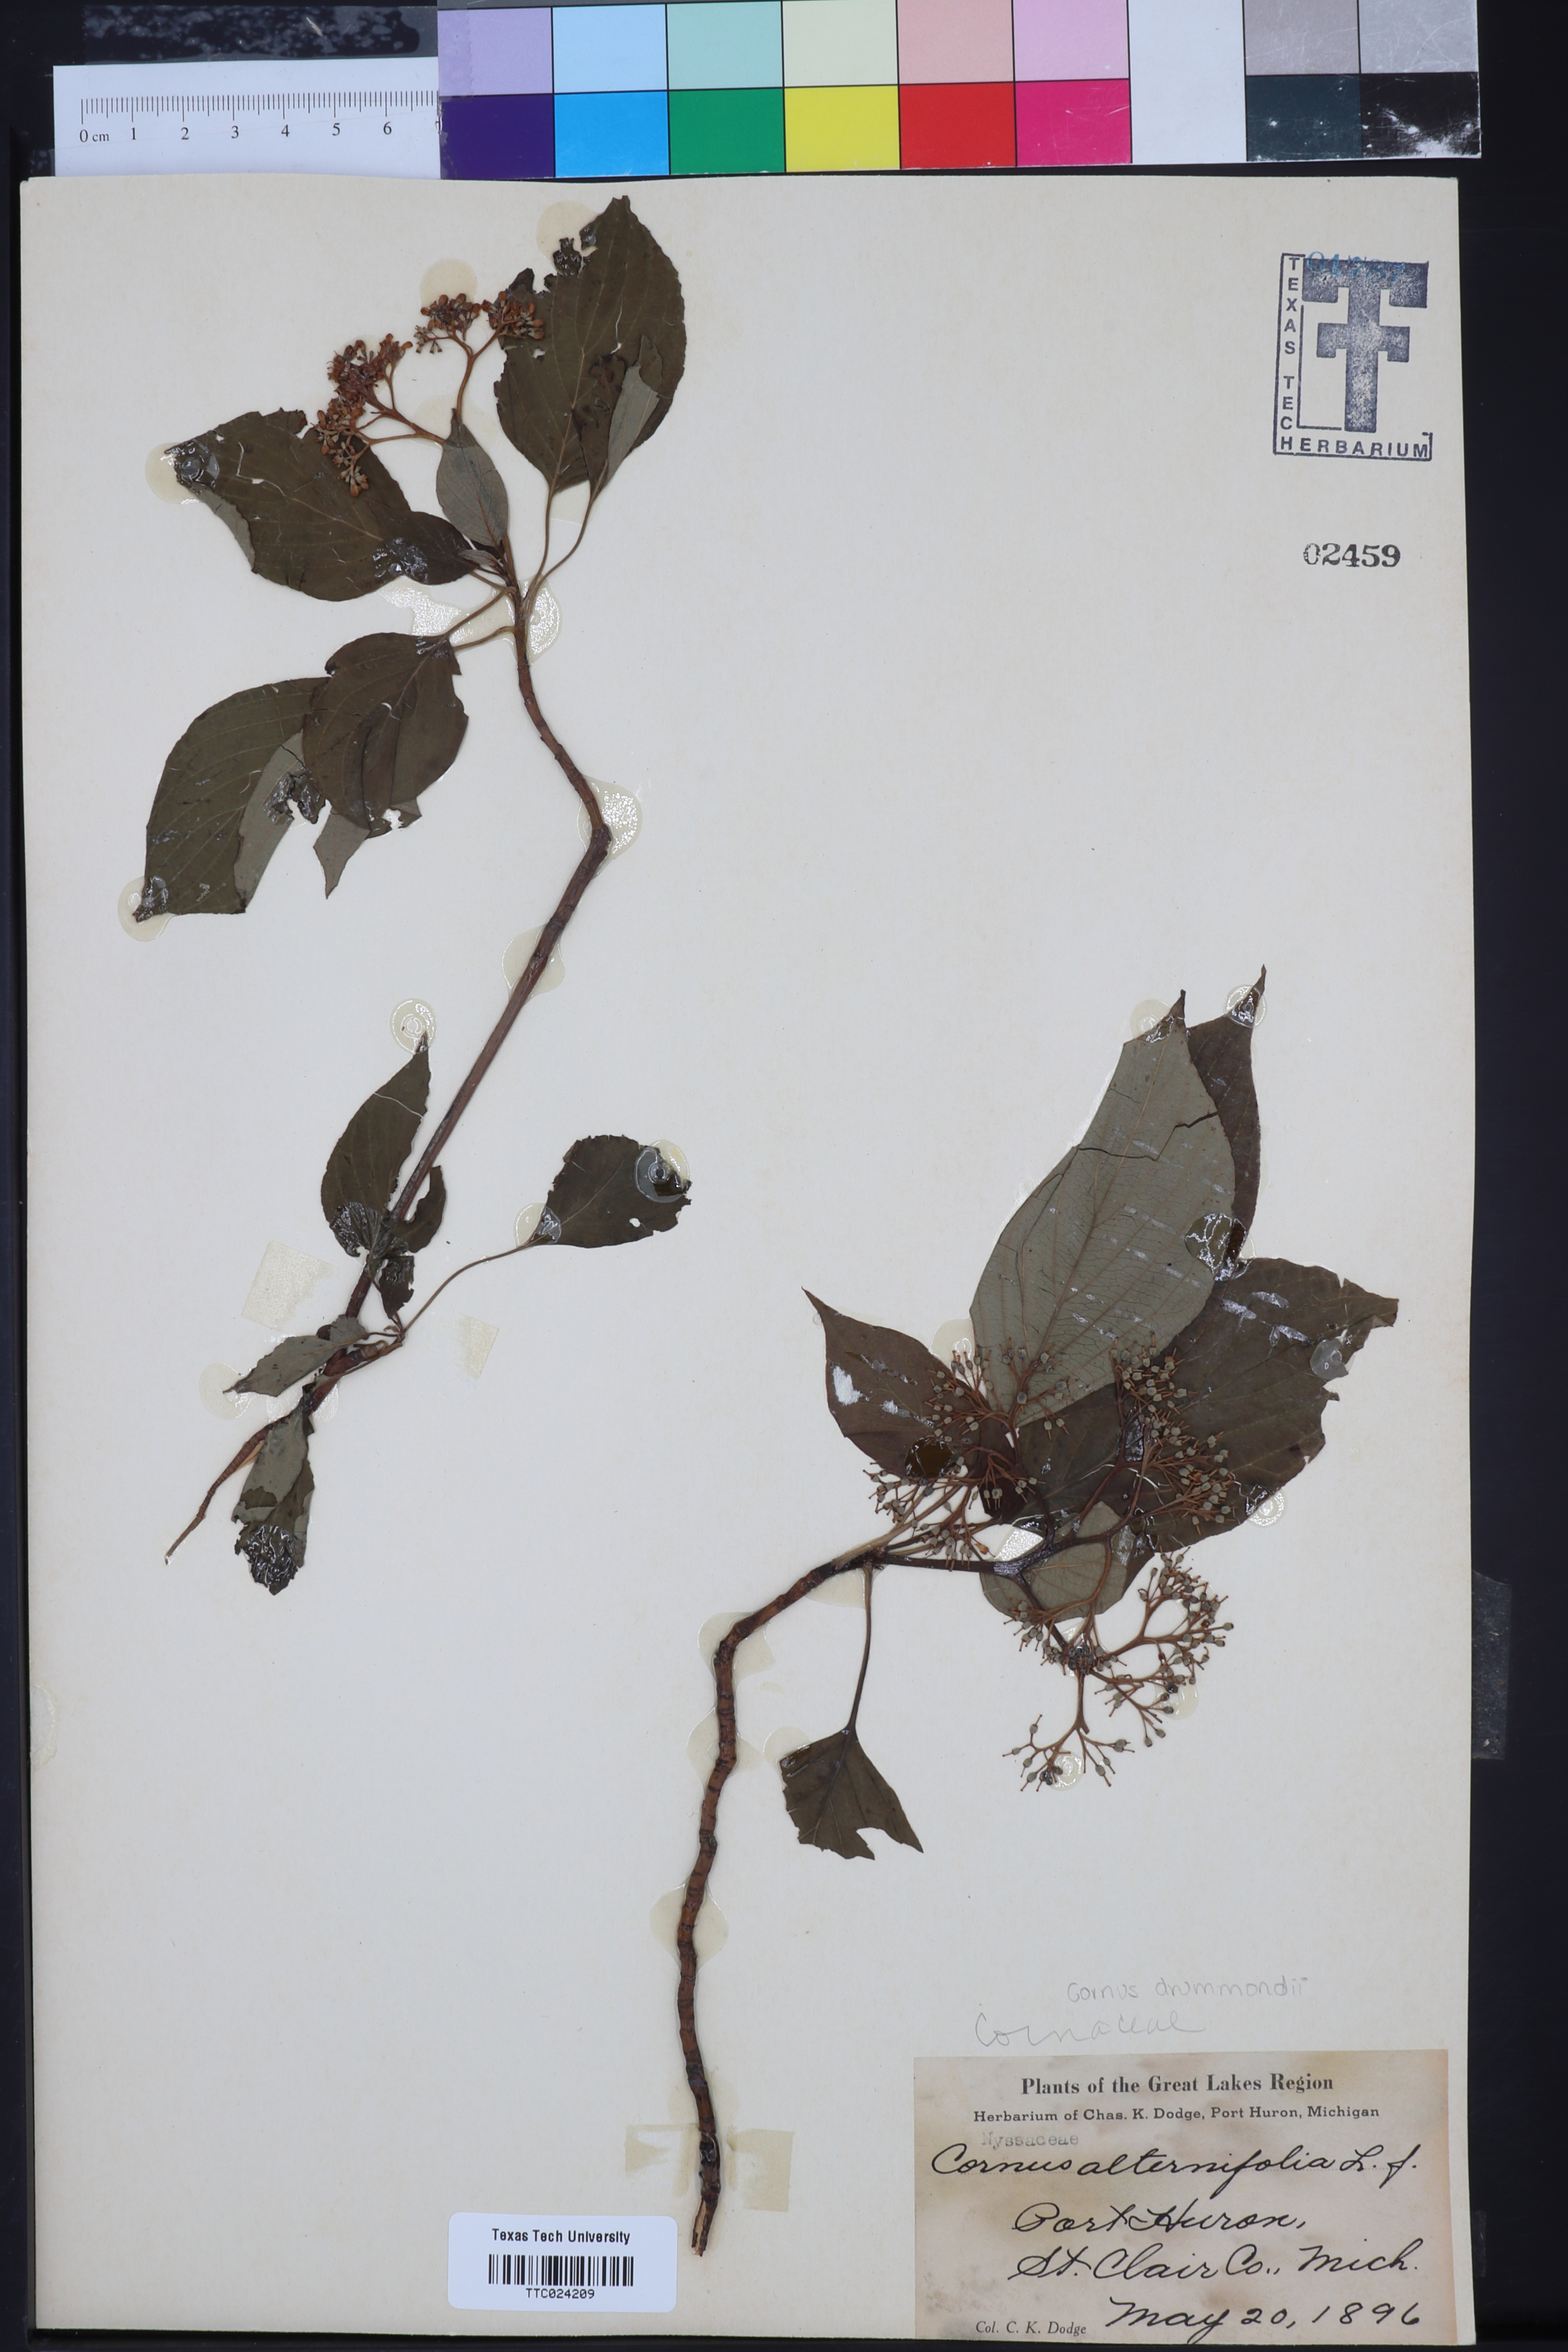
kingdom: Plantae
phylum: Tracheophyta
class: Magnoliopsida
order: Cornales
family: Cornaceae
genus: Cornus
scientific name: Cornus alternifolia
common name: Pagoda dogwood
